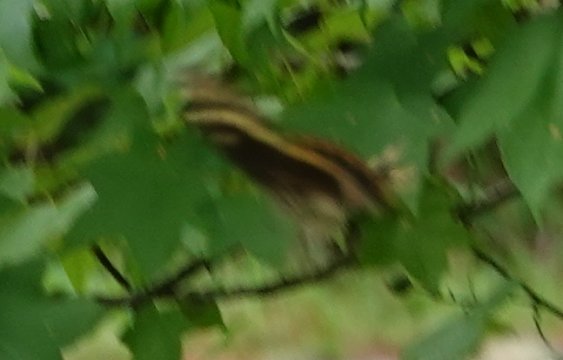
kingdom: Animalia
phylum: Arthropoda
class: Insecta
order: Lepidoptera
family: Papilionidae
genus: Pterourus
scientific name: Pterourus palamedes
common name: Palamedes Swallowtail
